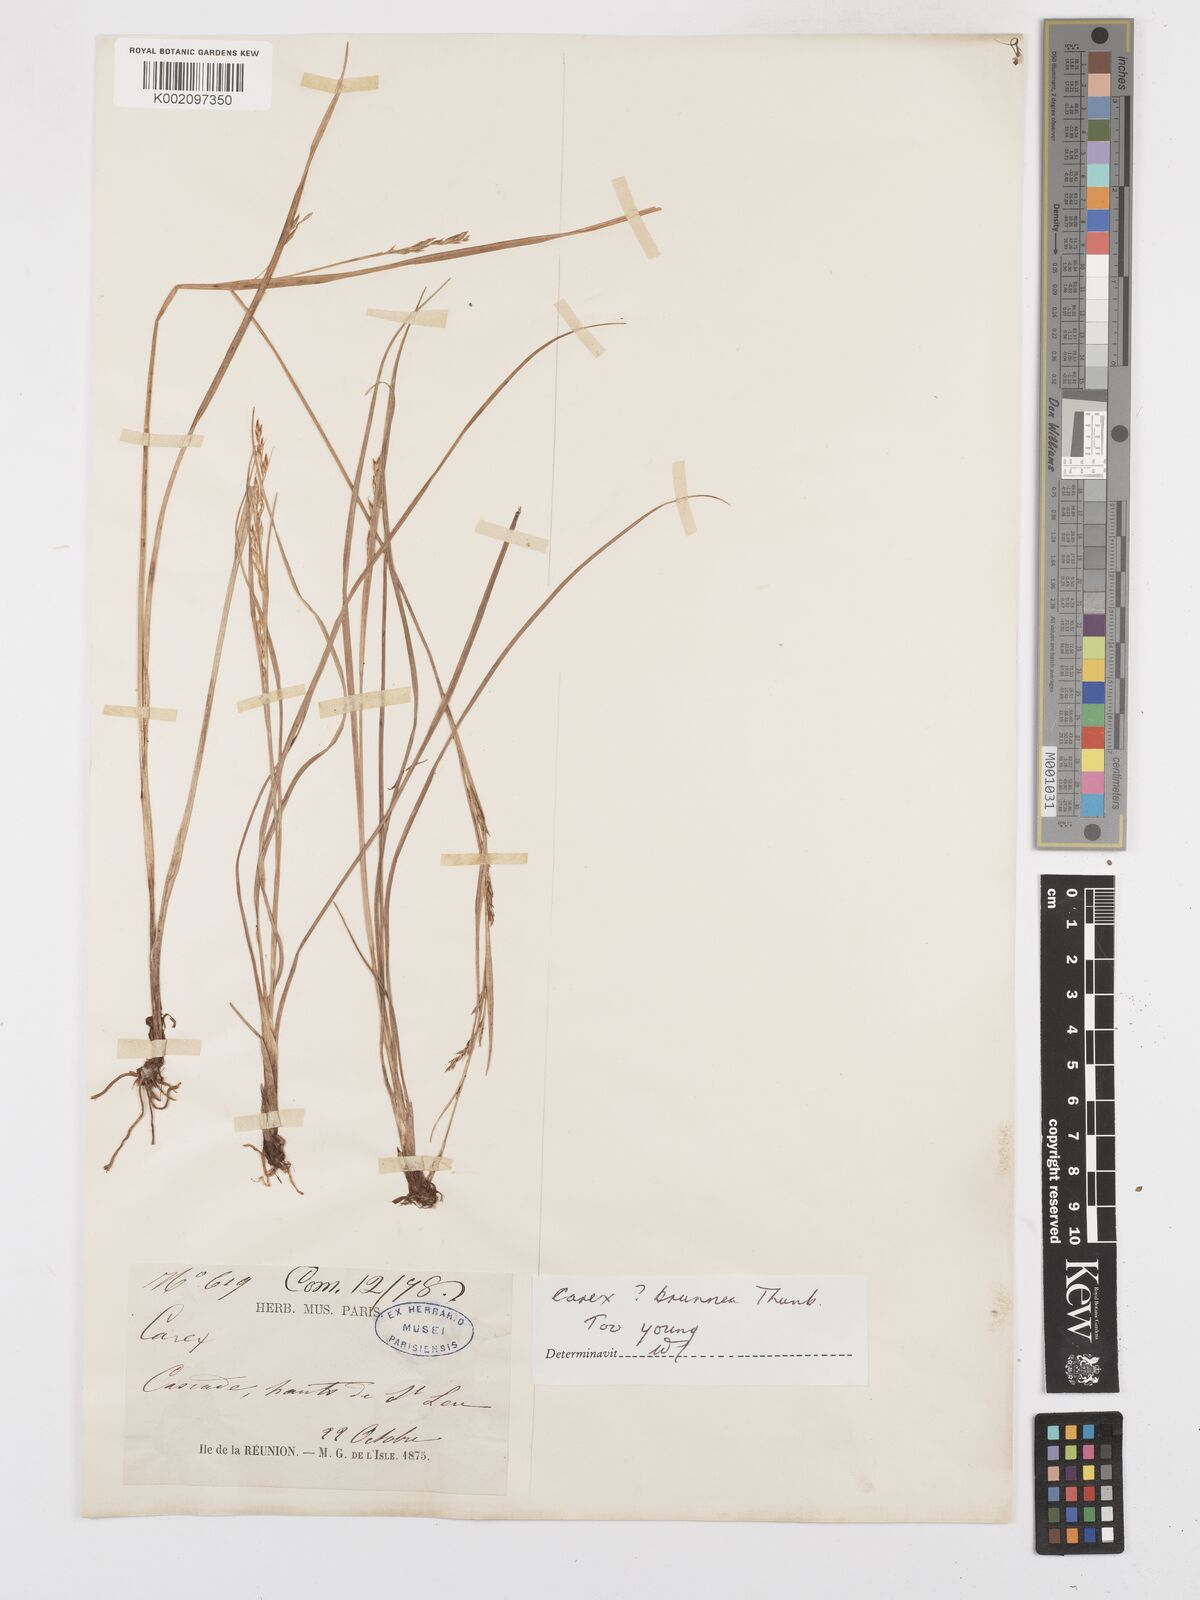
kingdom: Plantae
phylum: Tracheophyta
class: Liliopsida
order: Poales
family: Cyperaceae
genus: Carex
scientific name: Carex brunnea
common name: Greater brown sedge
